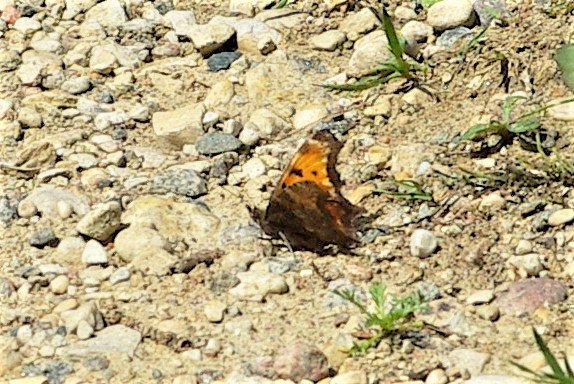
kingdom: Animalia
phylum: Arthropoda
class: Insecta
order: Lepidoptera
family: Nymphalidae
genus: Polygonia
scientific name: Polygonia progne
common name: Gray Comma
